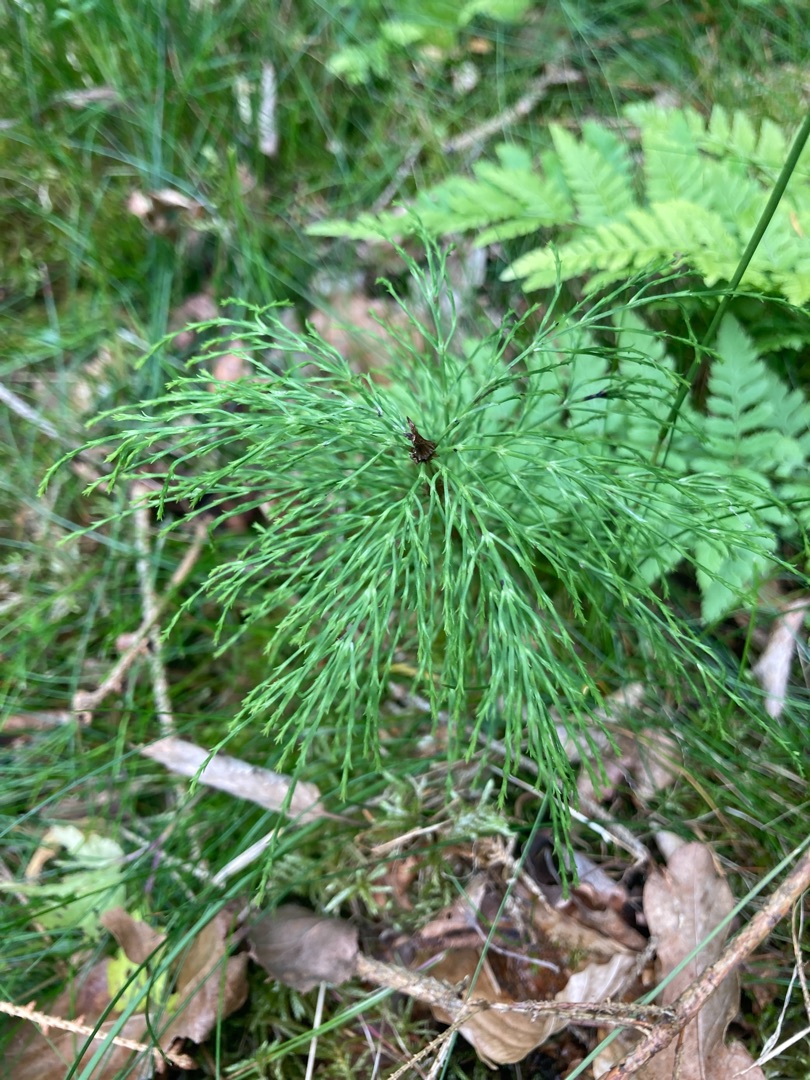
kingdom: Plantae
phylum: Tracheophyta
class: Polypodiopsida
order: Equisetales
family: Equisetaceae
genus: Equisetum
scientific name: Equisetum sylvaticum
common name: Skov-padderok
